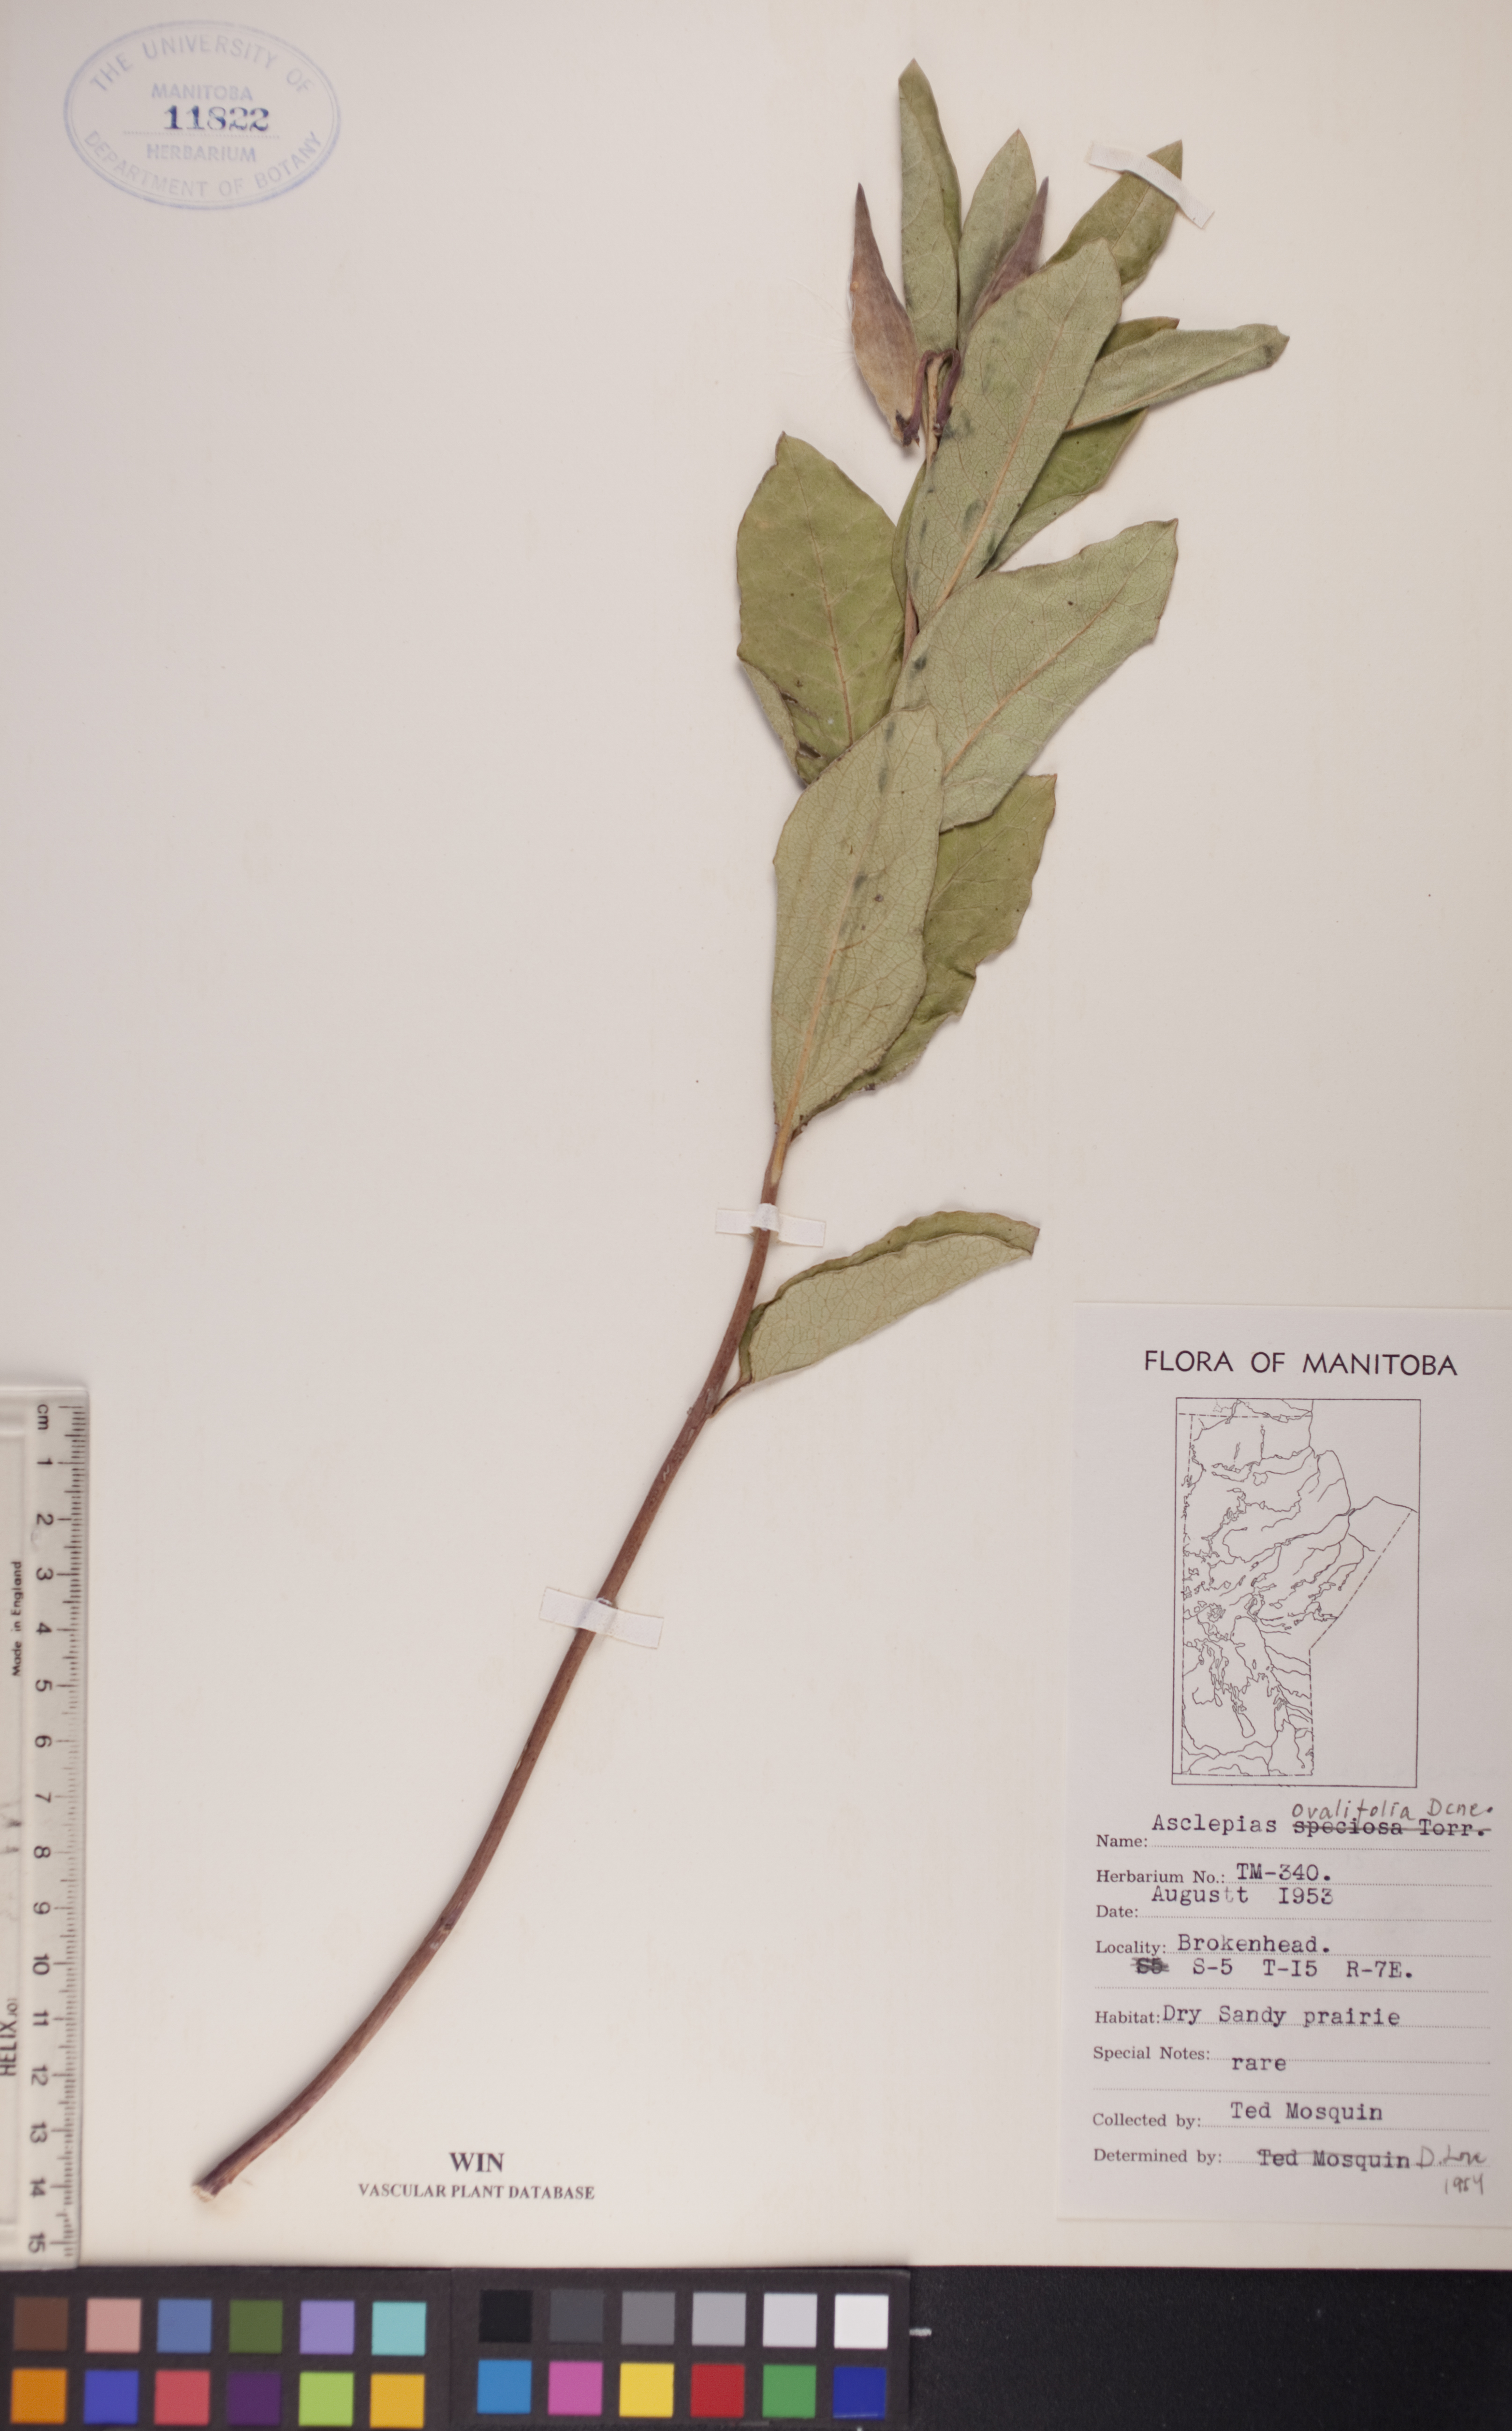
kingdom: Plantae
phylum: Tracheophyta
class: Magnoliopsida
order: Gentianales
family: Apocynaceae
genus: Asclepias
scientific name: Asclepias ovalifolia
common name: Dwarf milkweed
